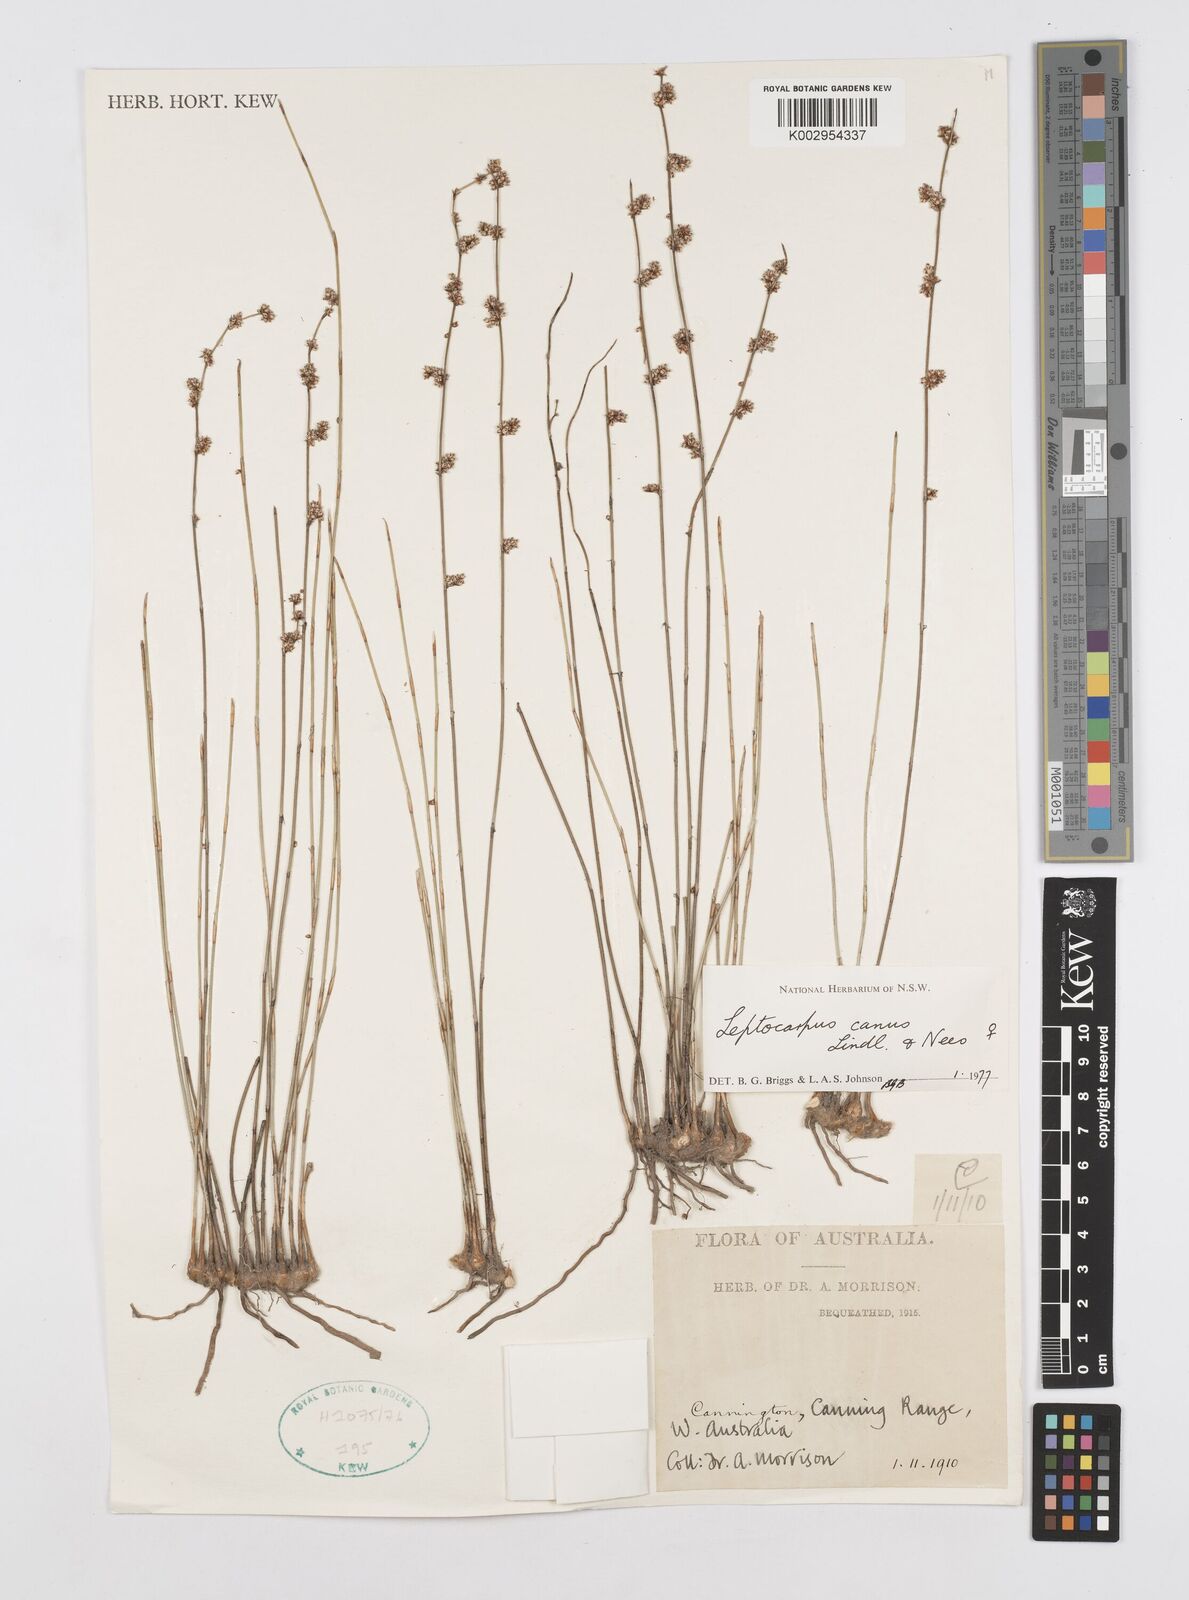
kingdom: Plantae
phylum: Tracheophyta
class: Liliopsida
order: Poales
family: Restionaceae
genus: Leptocarpus
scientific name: Leptocarpus canus
